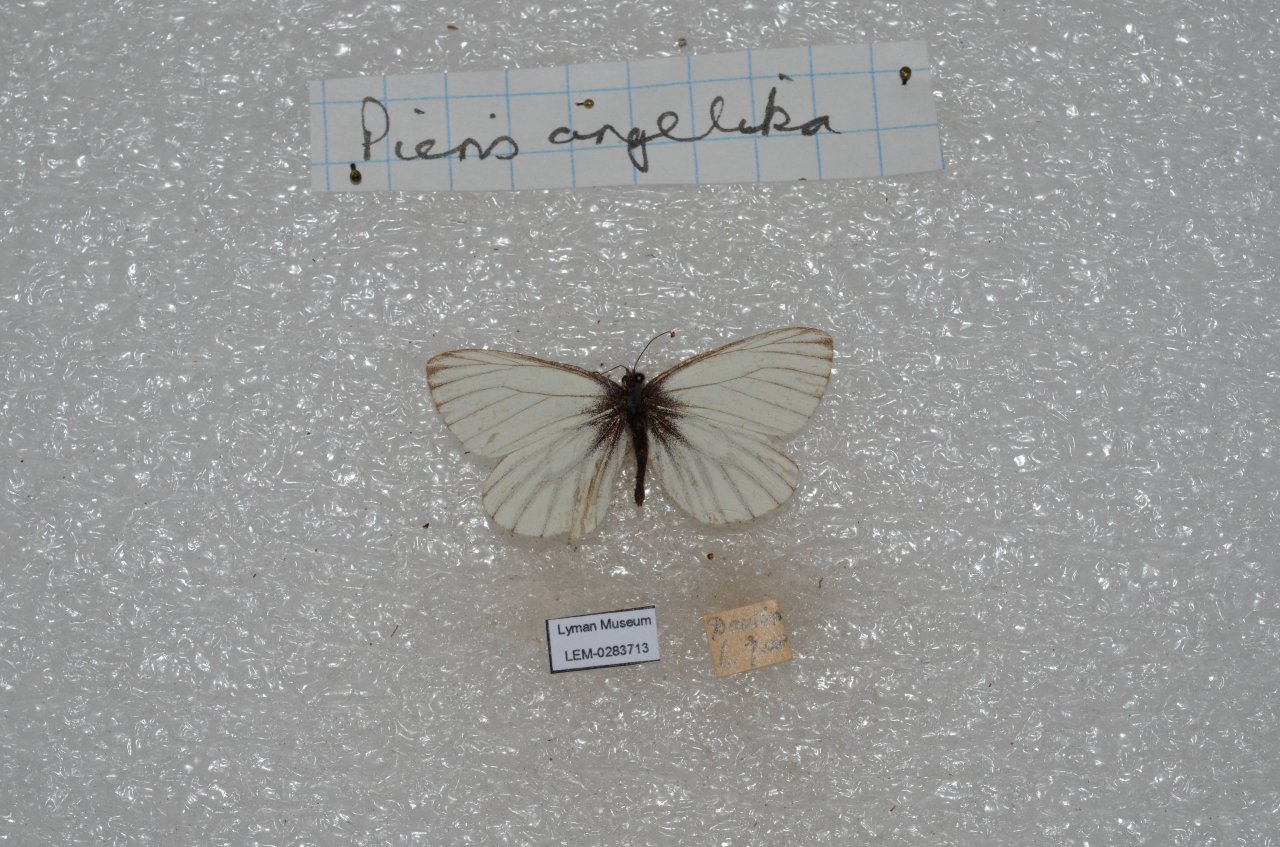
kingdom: Animalia
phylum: Arthropoda
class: Insecta
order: Lepidoptera
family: Pieridae
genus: Pieris
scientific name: Pieris angelika
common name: Arctic White
